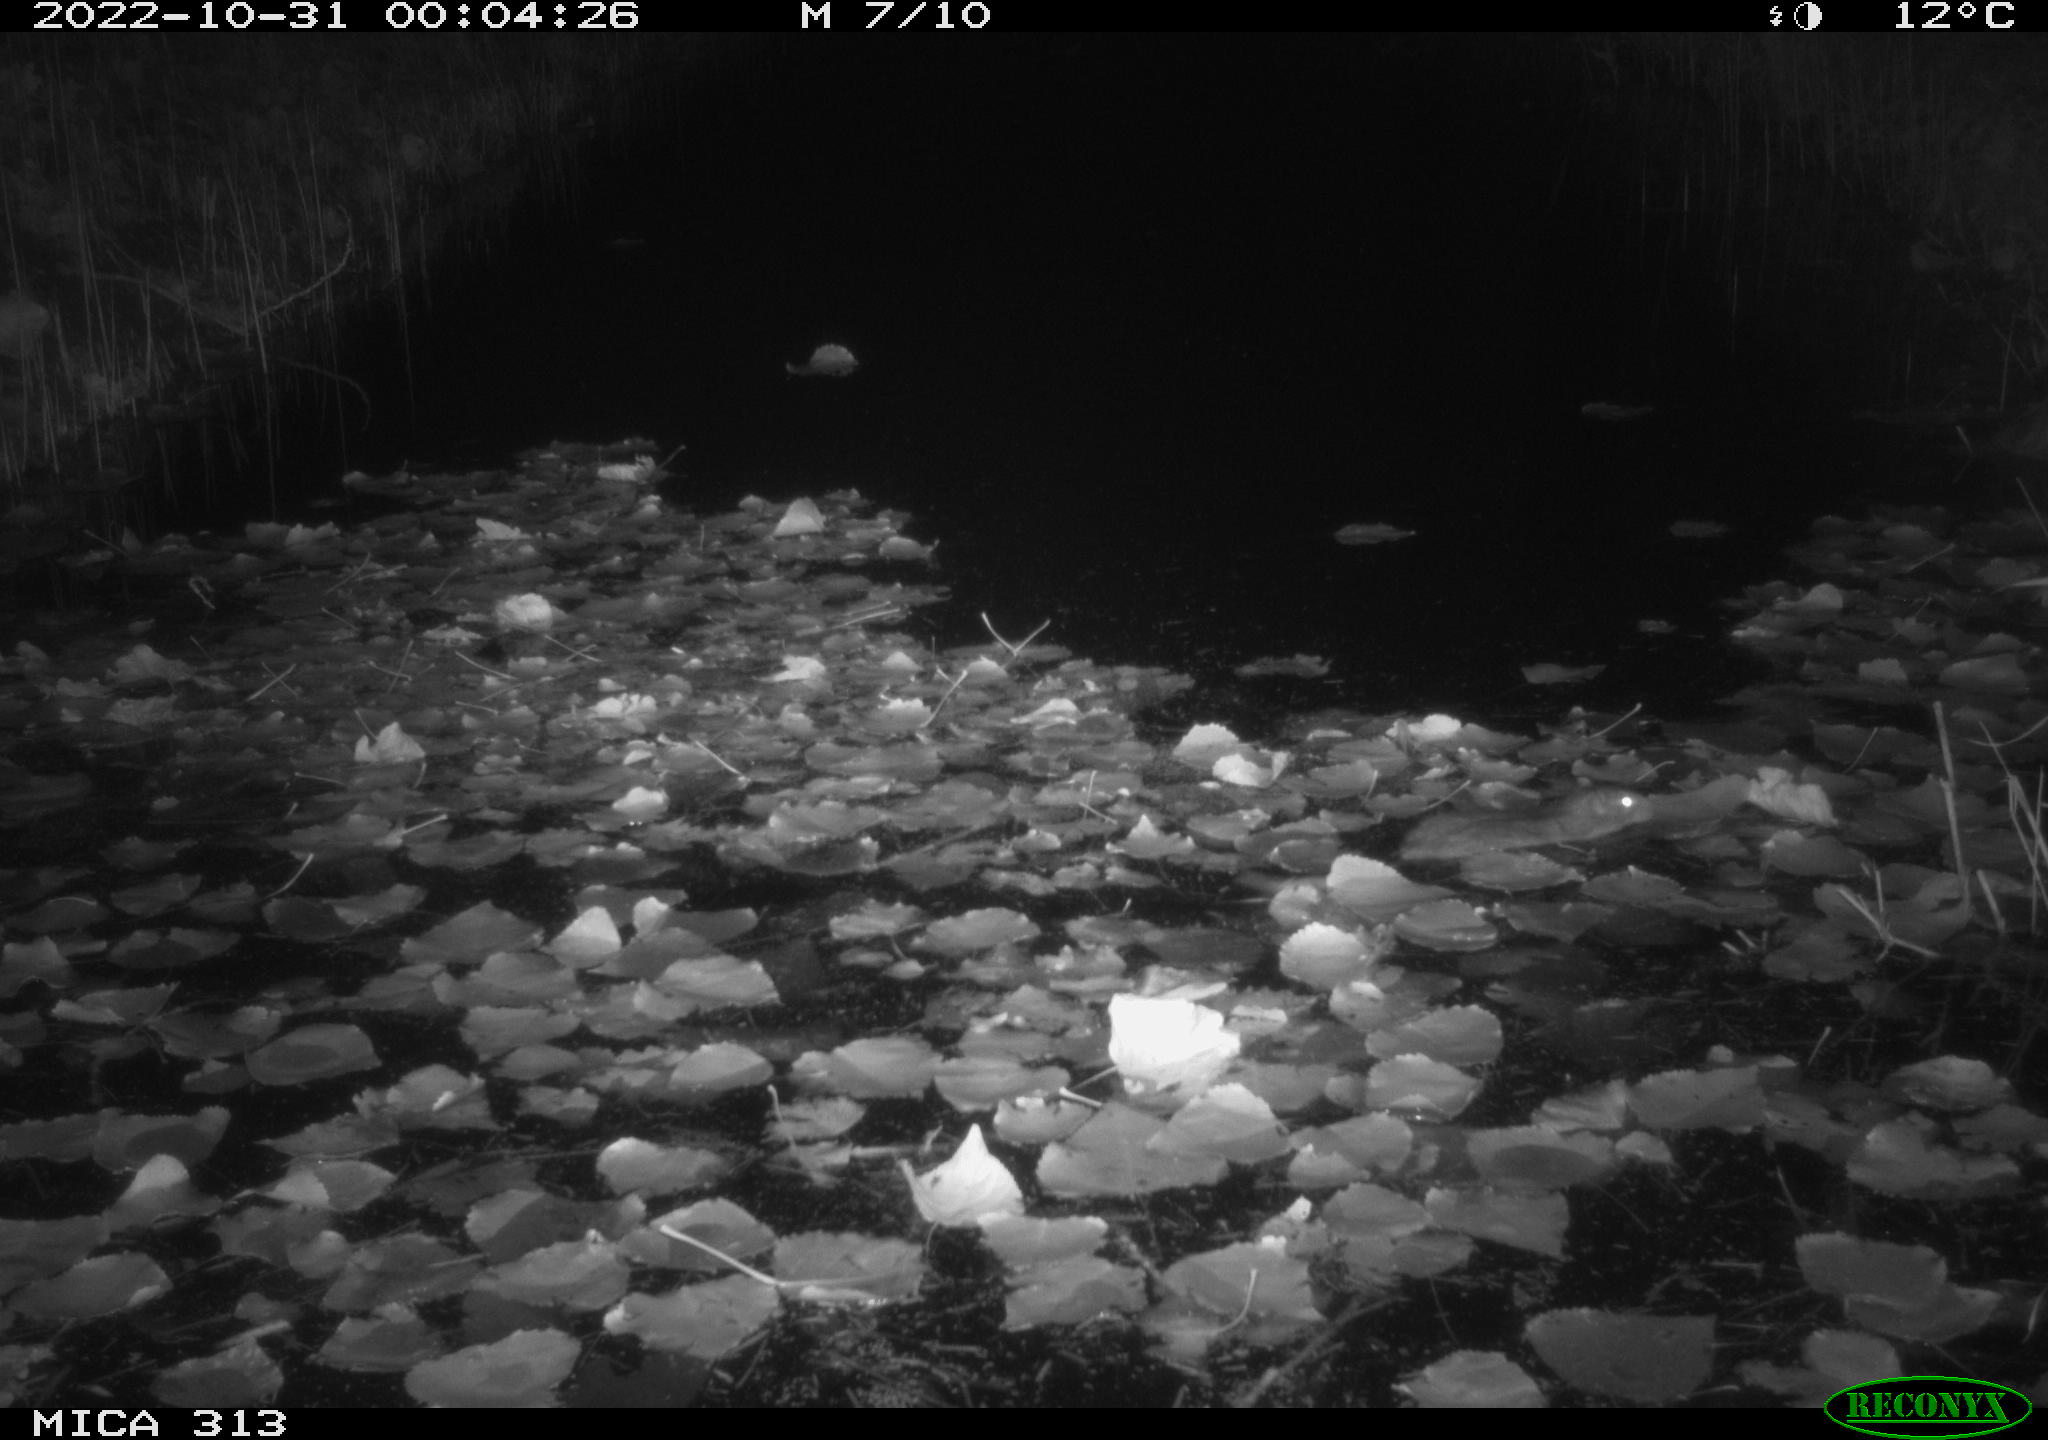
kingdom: Animalia
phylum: Chordata
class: Mammalia
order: Rodentia
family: Muridae
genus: Rattus
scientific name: Rattus norvegicus
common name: Brown rat
